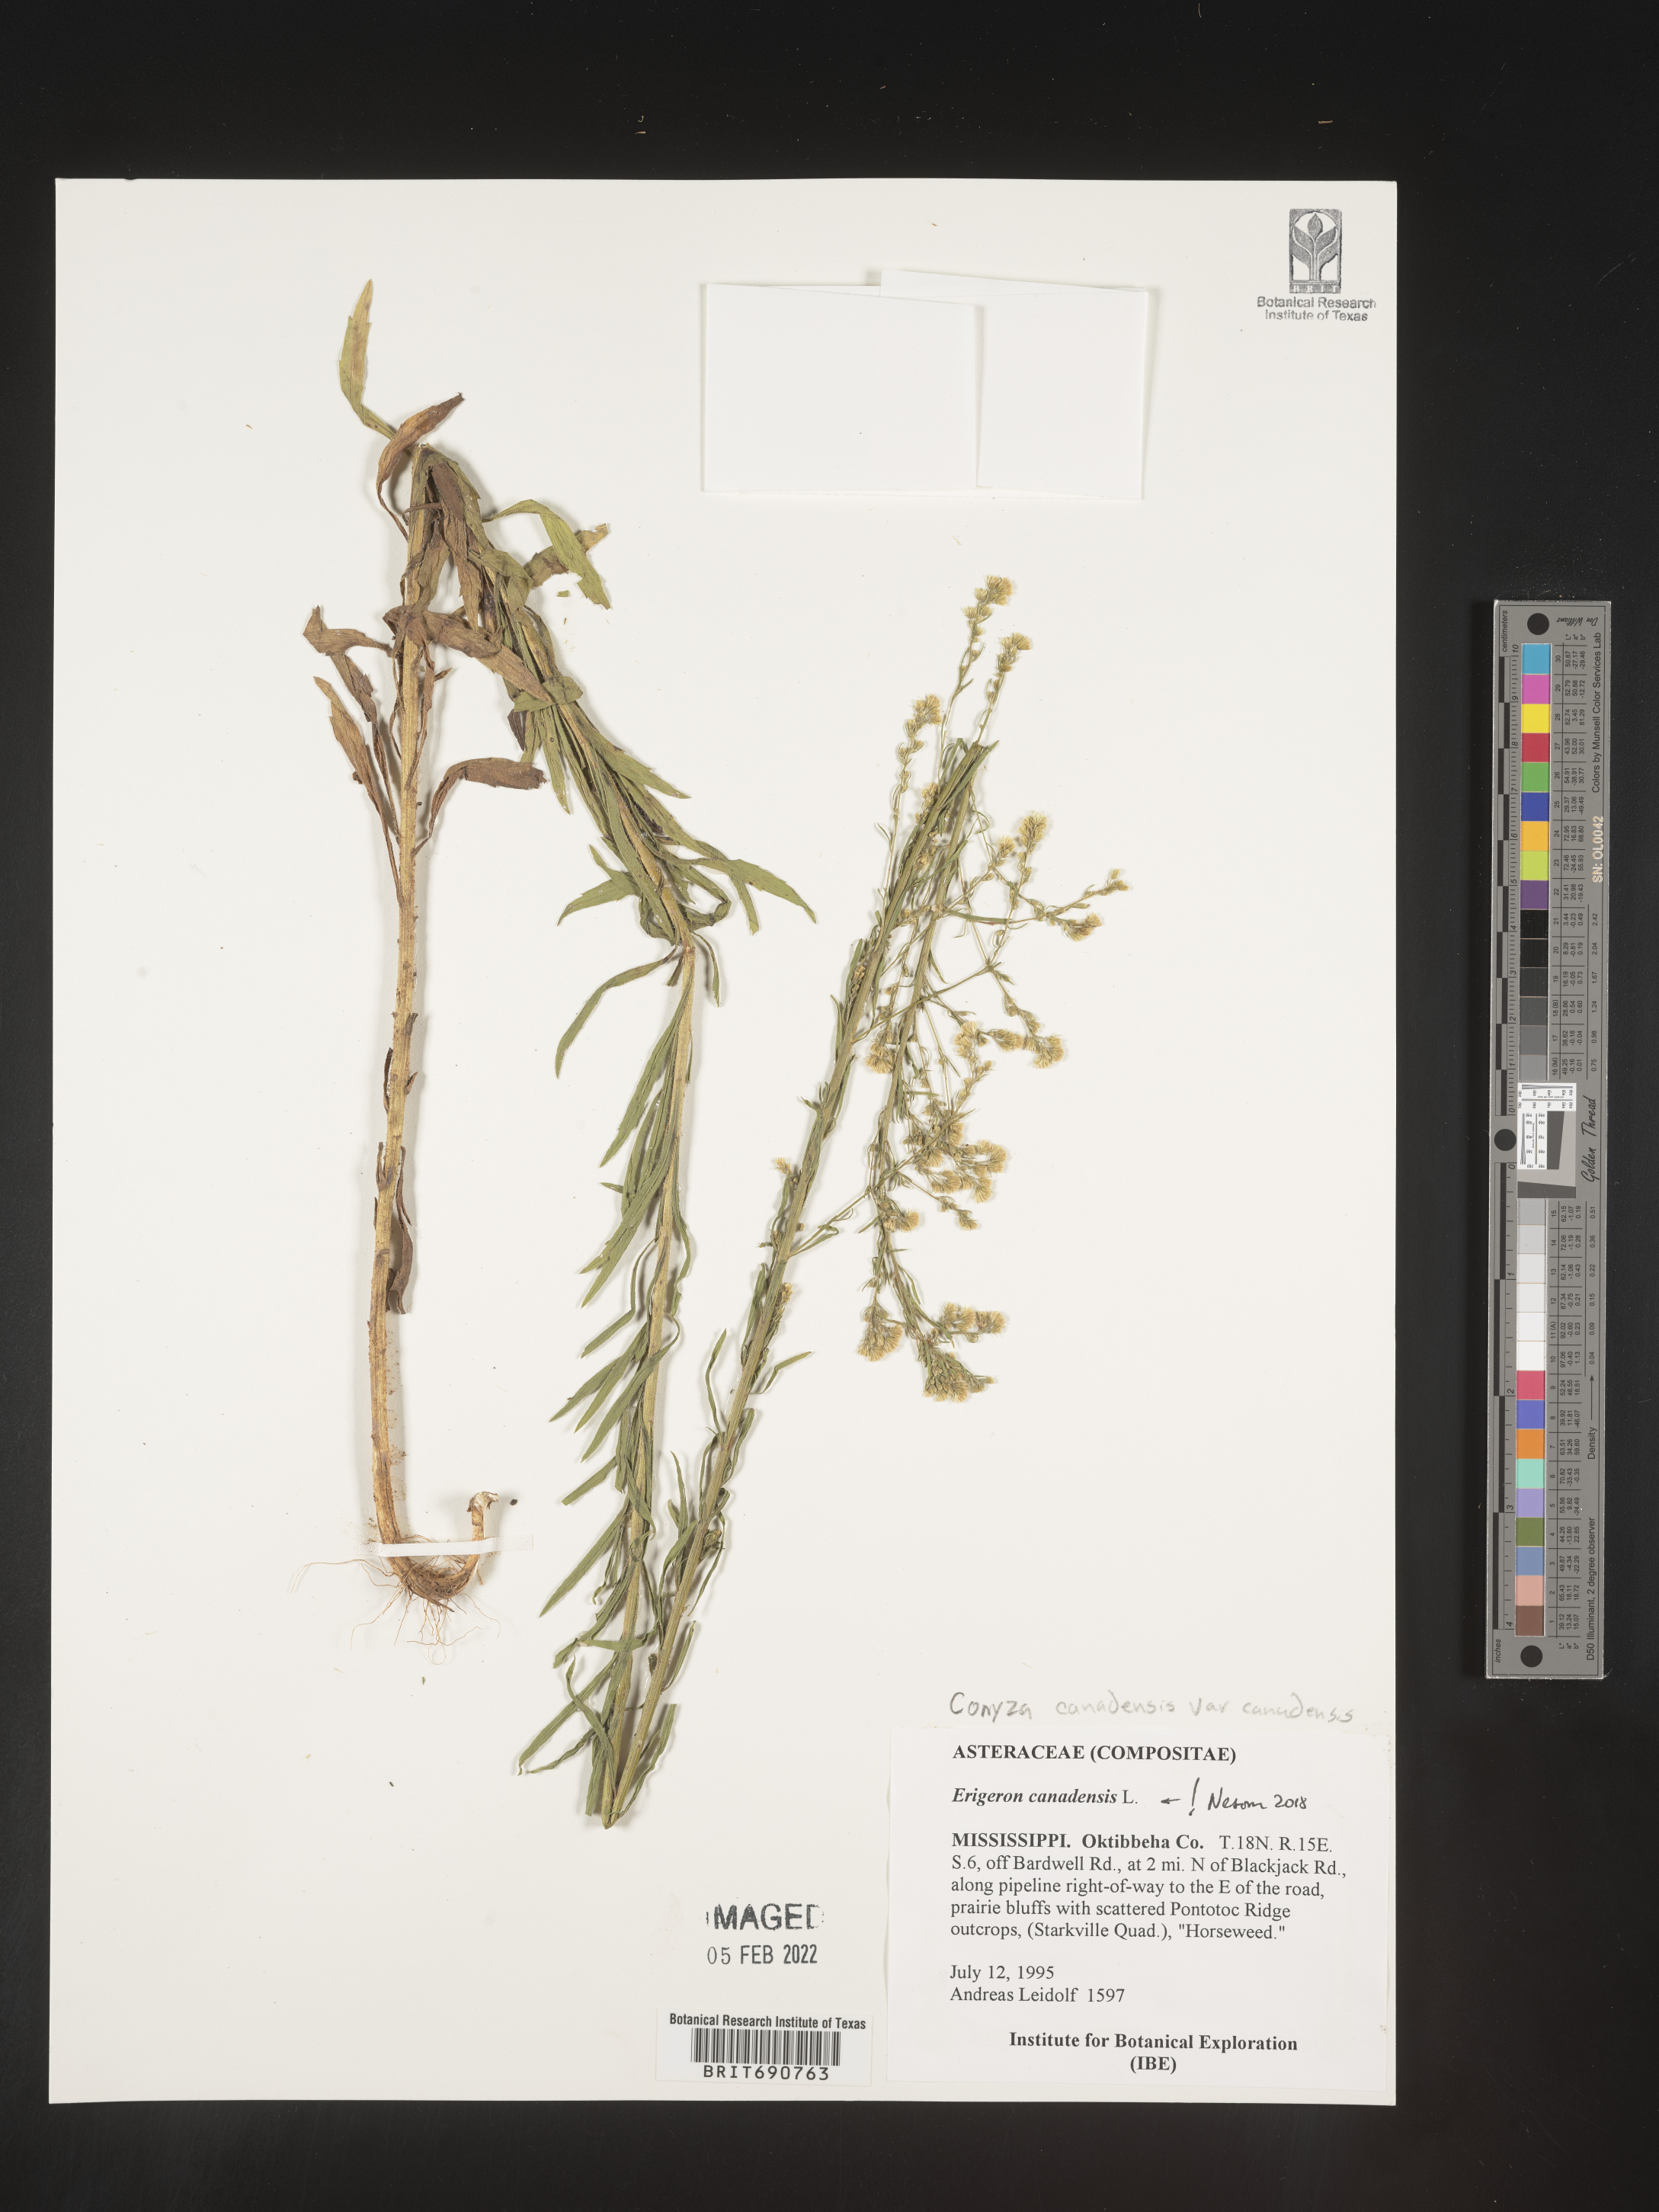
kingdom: Plantae
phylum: Tracheophyta
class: Magnoliopsida
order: Asterales
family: Asteraceae
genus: Erigeron
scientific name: Erigeron canadensis
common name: Canadian fleabane
